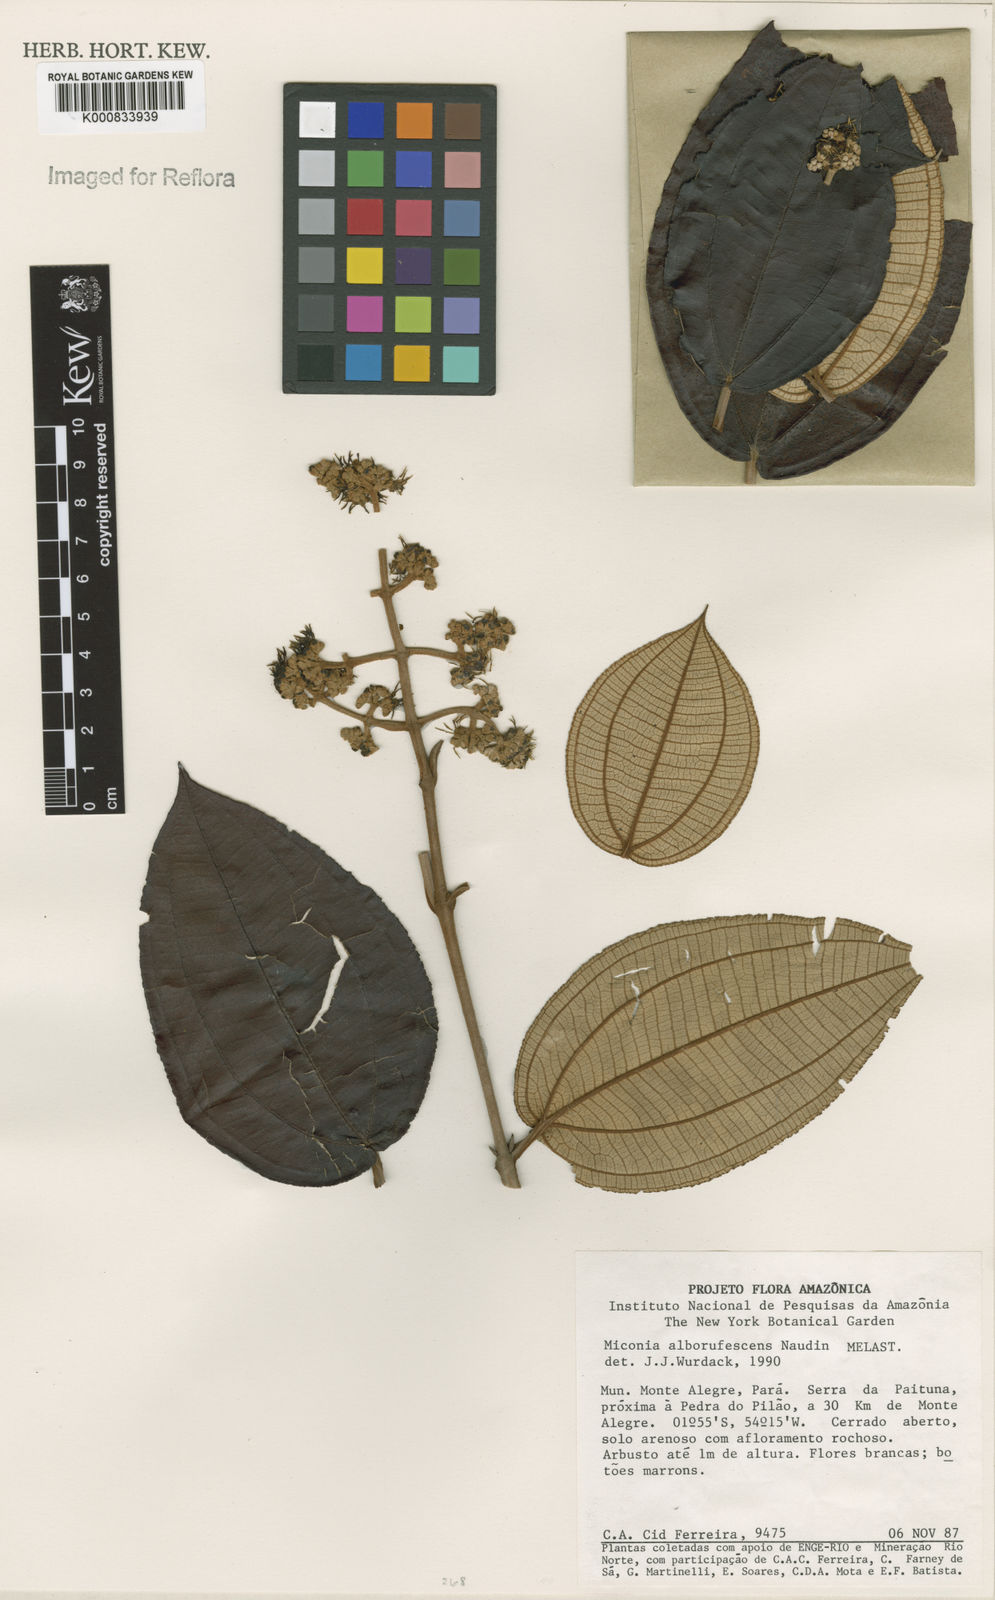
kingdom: Plantae
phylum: Tracheophyta
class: Magnoliopsida
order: Myrtales
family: Melastomataceae
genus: Miconia
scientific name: Miconia alborufescens
